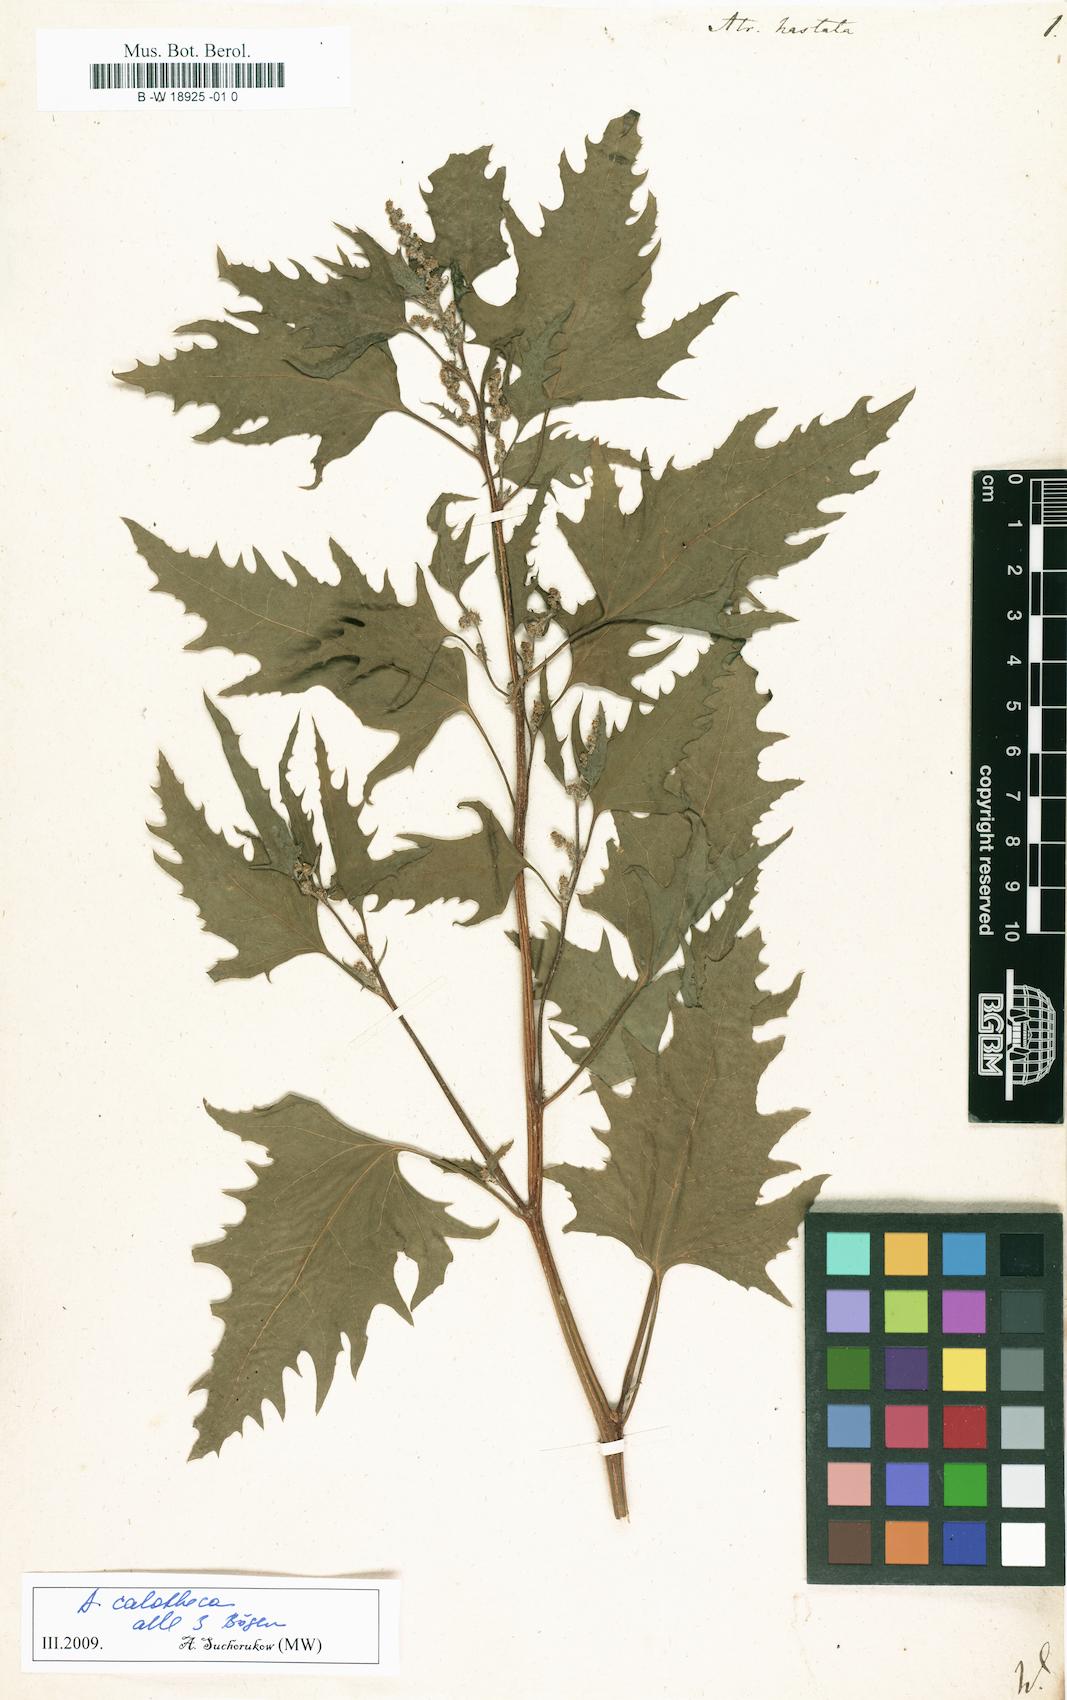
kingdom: Plantae
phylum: Tracheophyta
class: Magnoliopsida
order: Caryophyllales
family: Amaranthaceae
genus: Atriplex
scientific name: Atriplex calotheca
